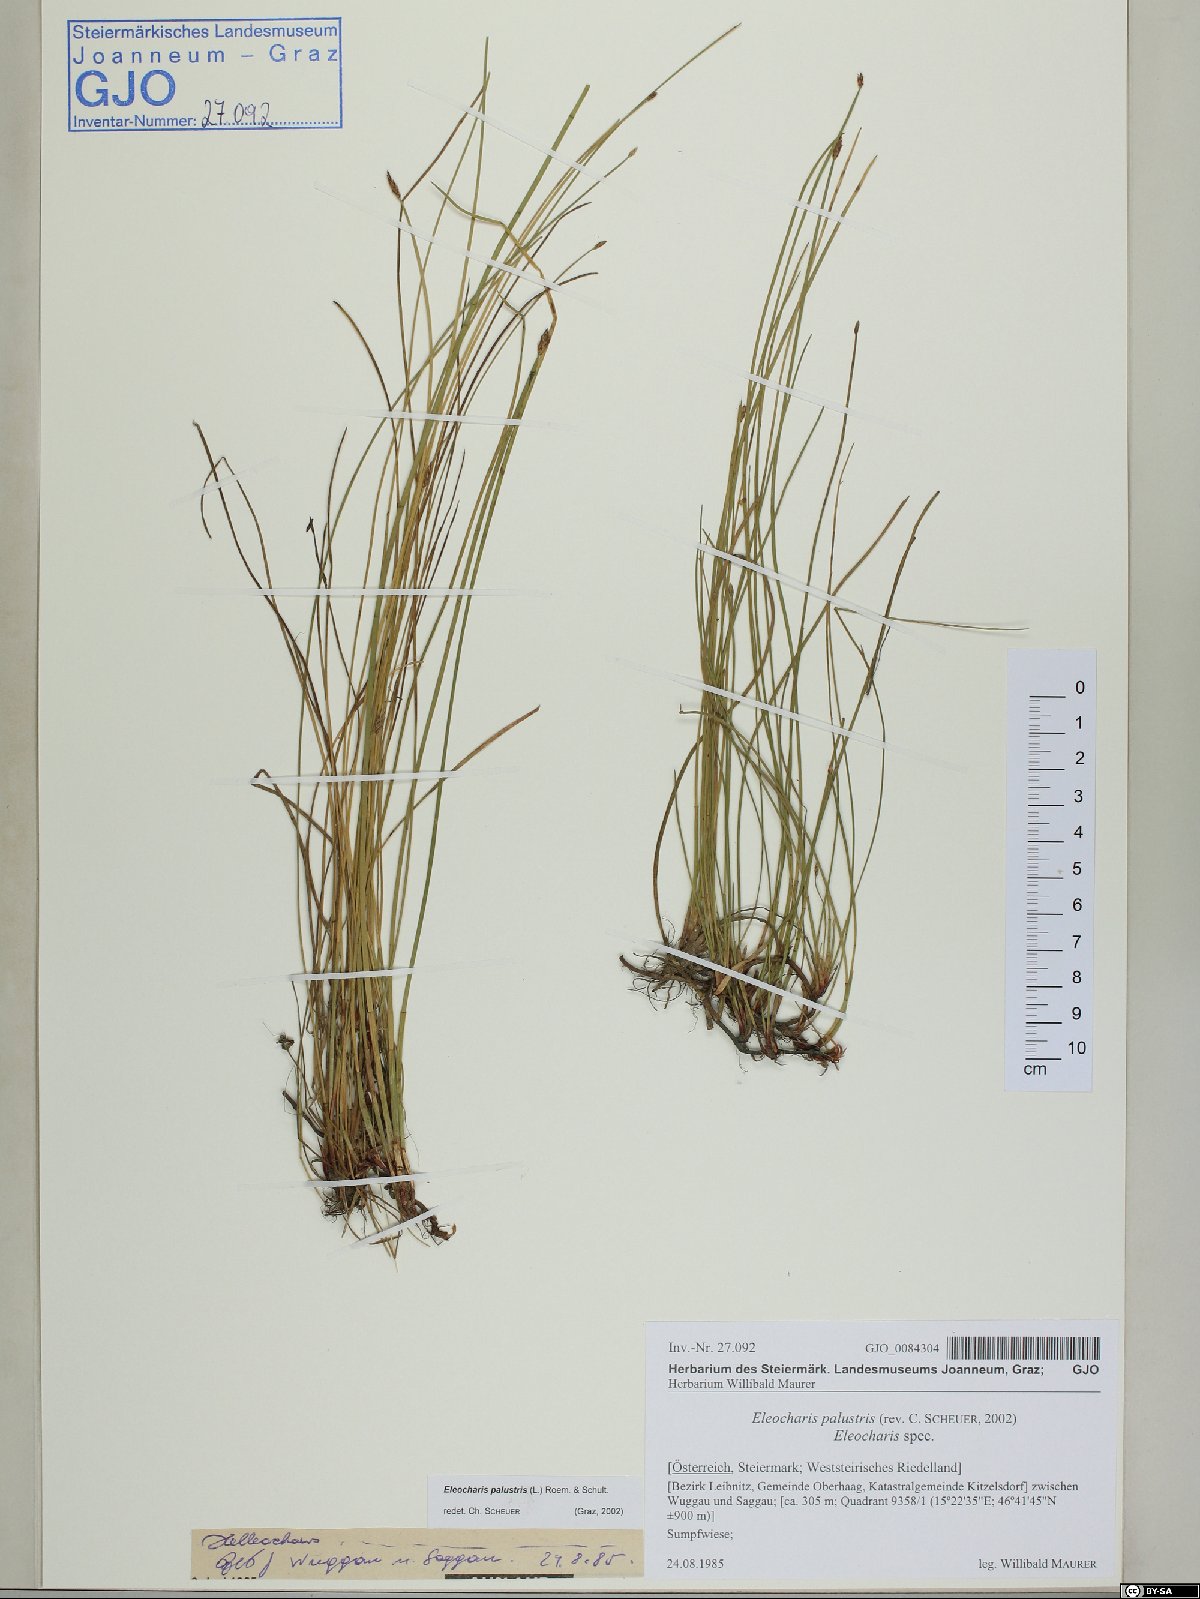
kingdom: Plantae
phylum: Tracheophyta
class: Liliopsida
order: Poales
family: Cyperaceae
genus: Eleocharis
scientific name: Eleocharis palustris
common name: Common spike-rush
